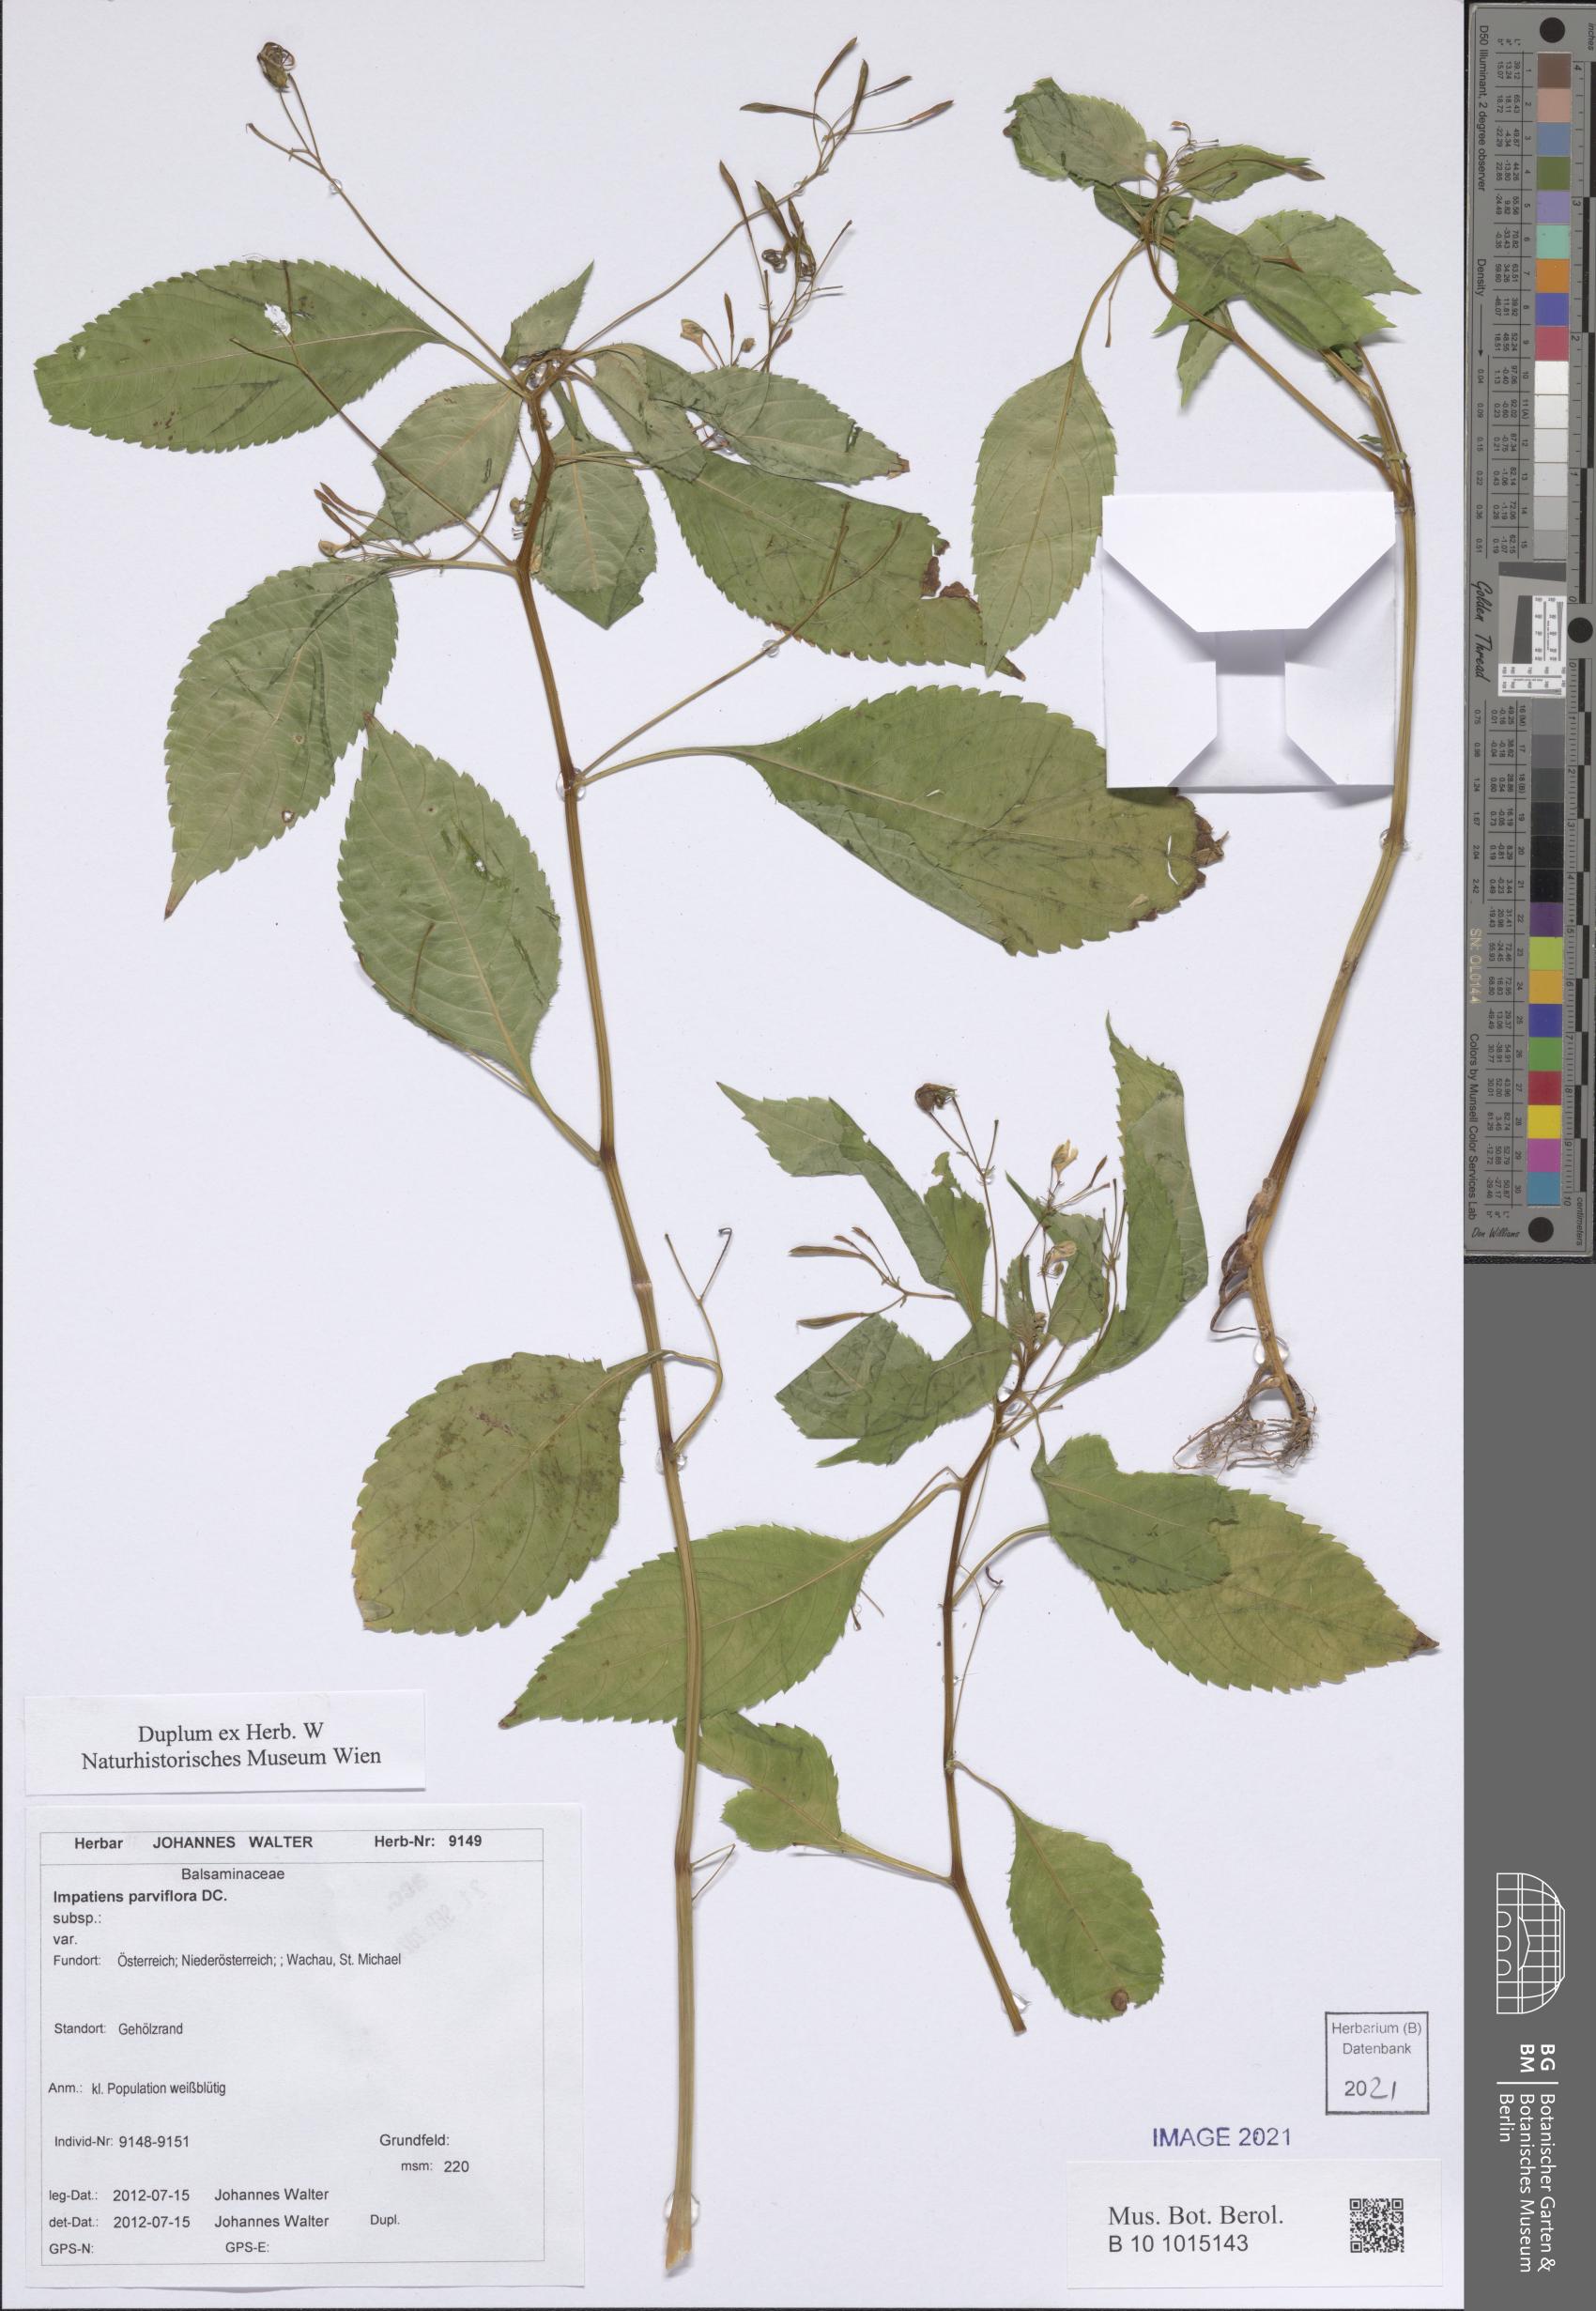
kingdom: Plantae
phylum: Tracheophyta
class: Magnoliopsida
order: Ericales
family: Balsaminaceae
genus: Impatiens
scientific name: Impatiens parviflora
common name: Small balsam
